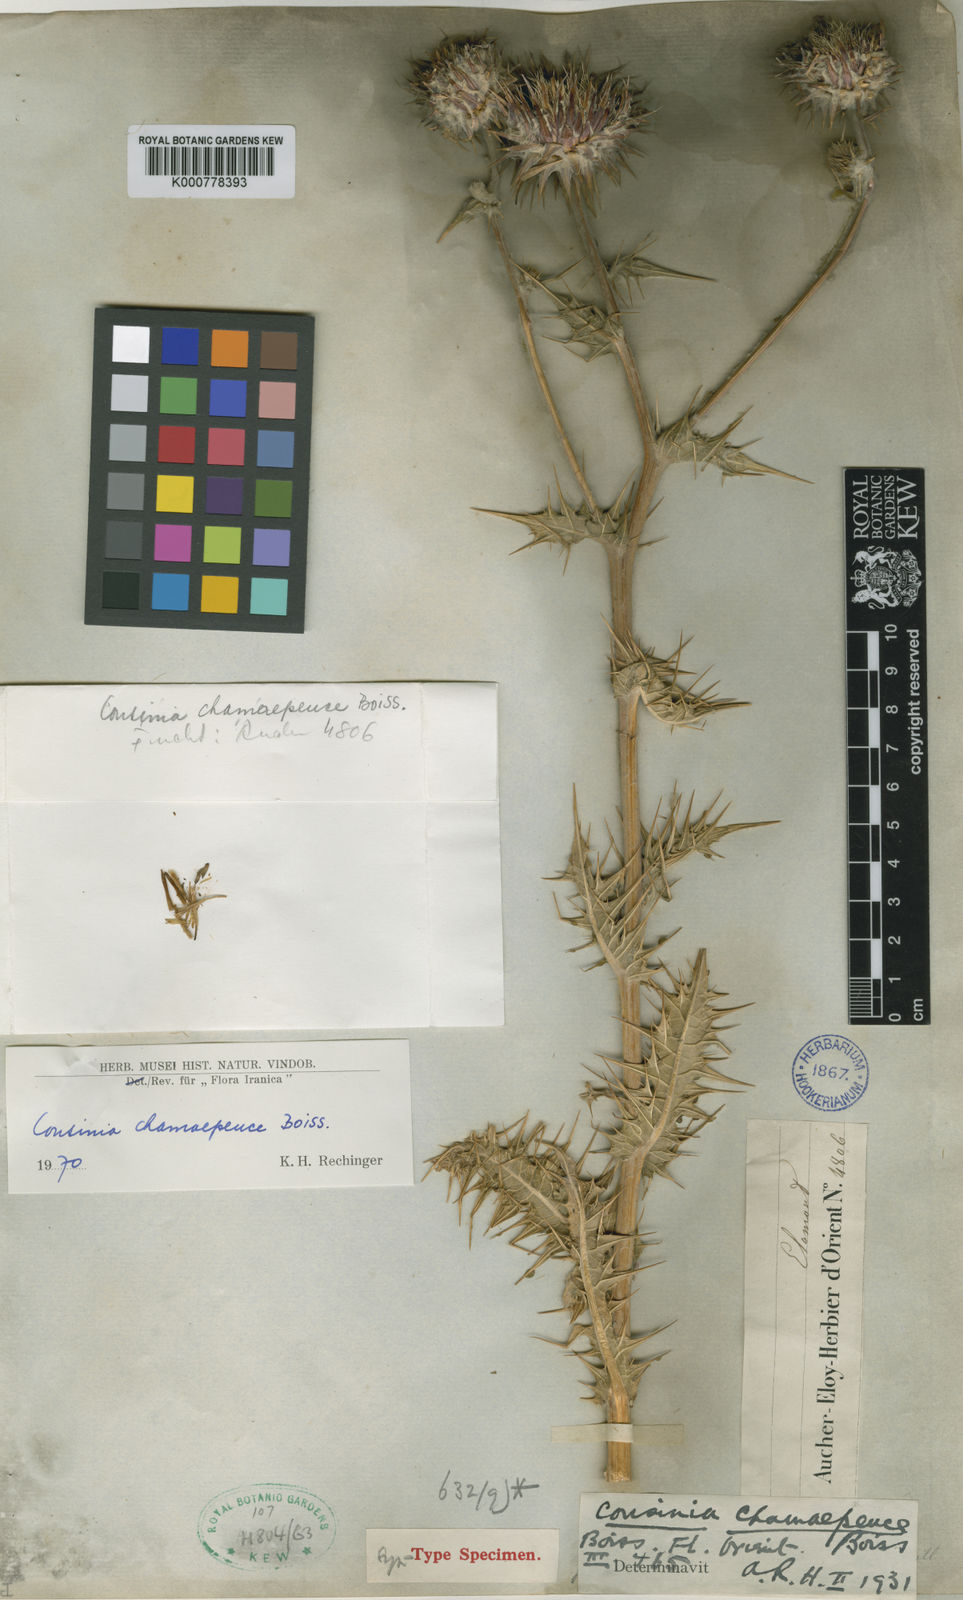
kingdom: Plantae
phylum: Tracheophyta
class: Magnoliopsida
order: Asterales
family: Asteraceae
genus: Cousinia
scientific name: Cousinia chamaepeuce
